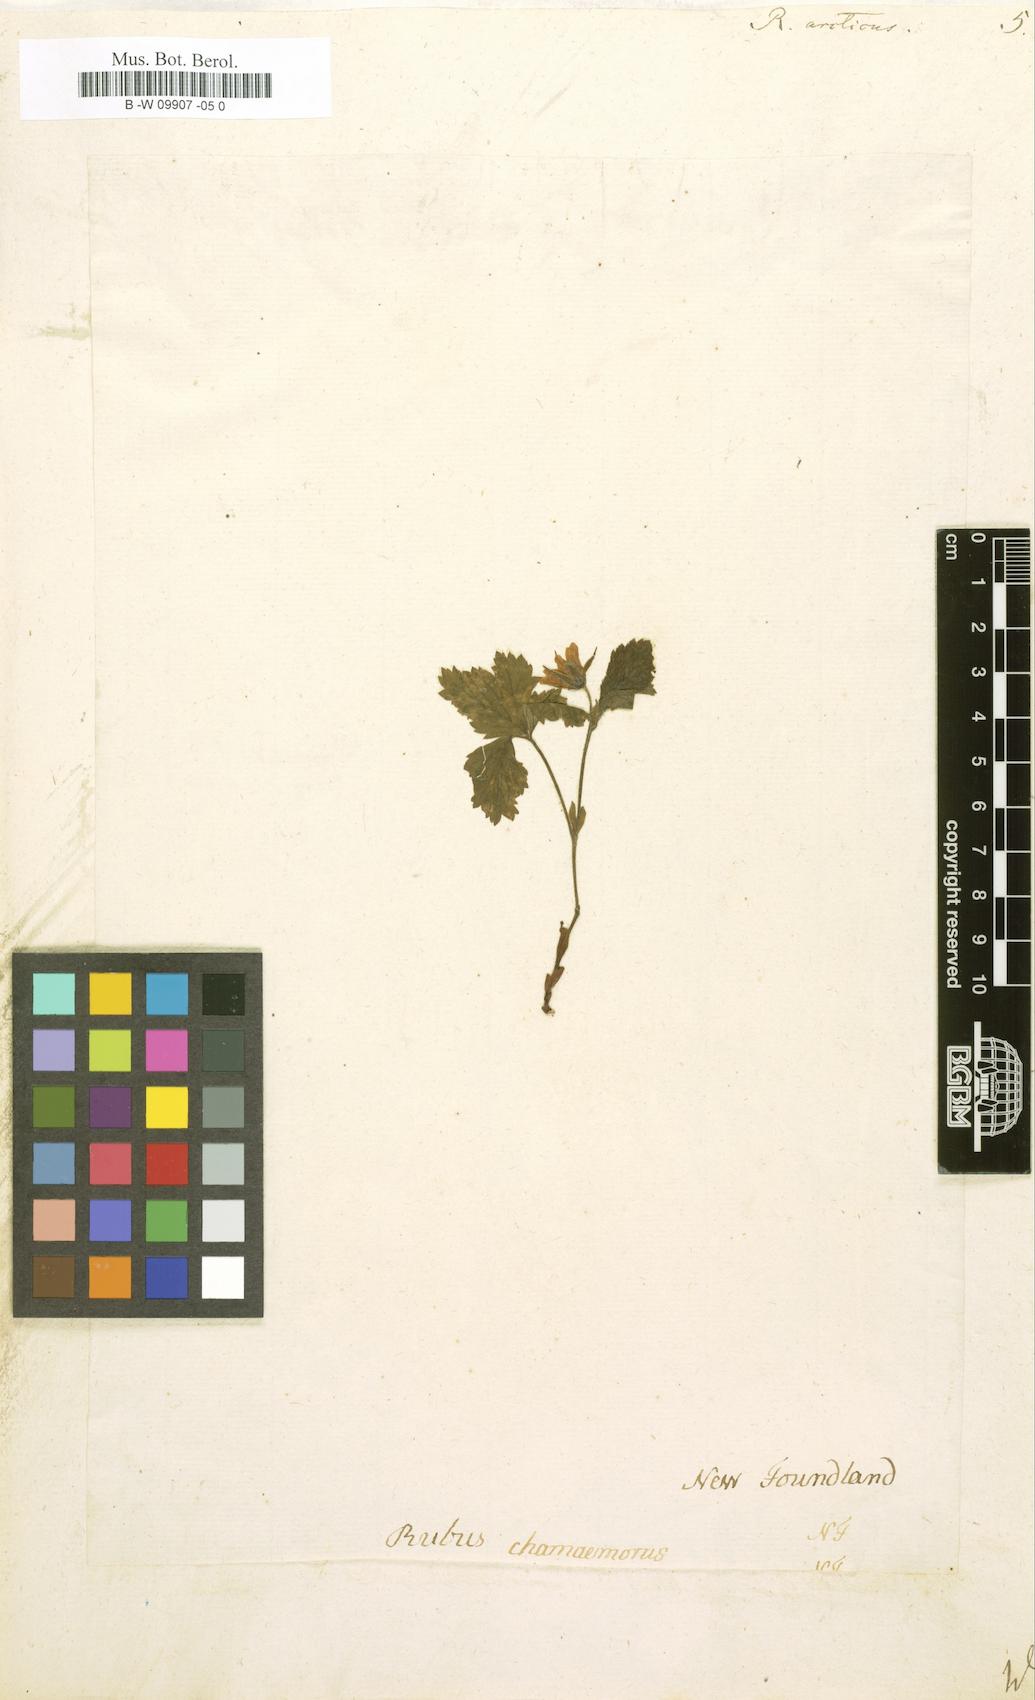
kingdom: Plantae
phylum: Tracheophyta
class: Magnoliopsida
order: Rosales
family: Rosaceae
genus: Rubus
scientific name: Rubus arcticus
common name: Arctic bramble
